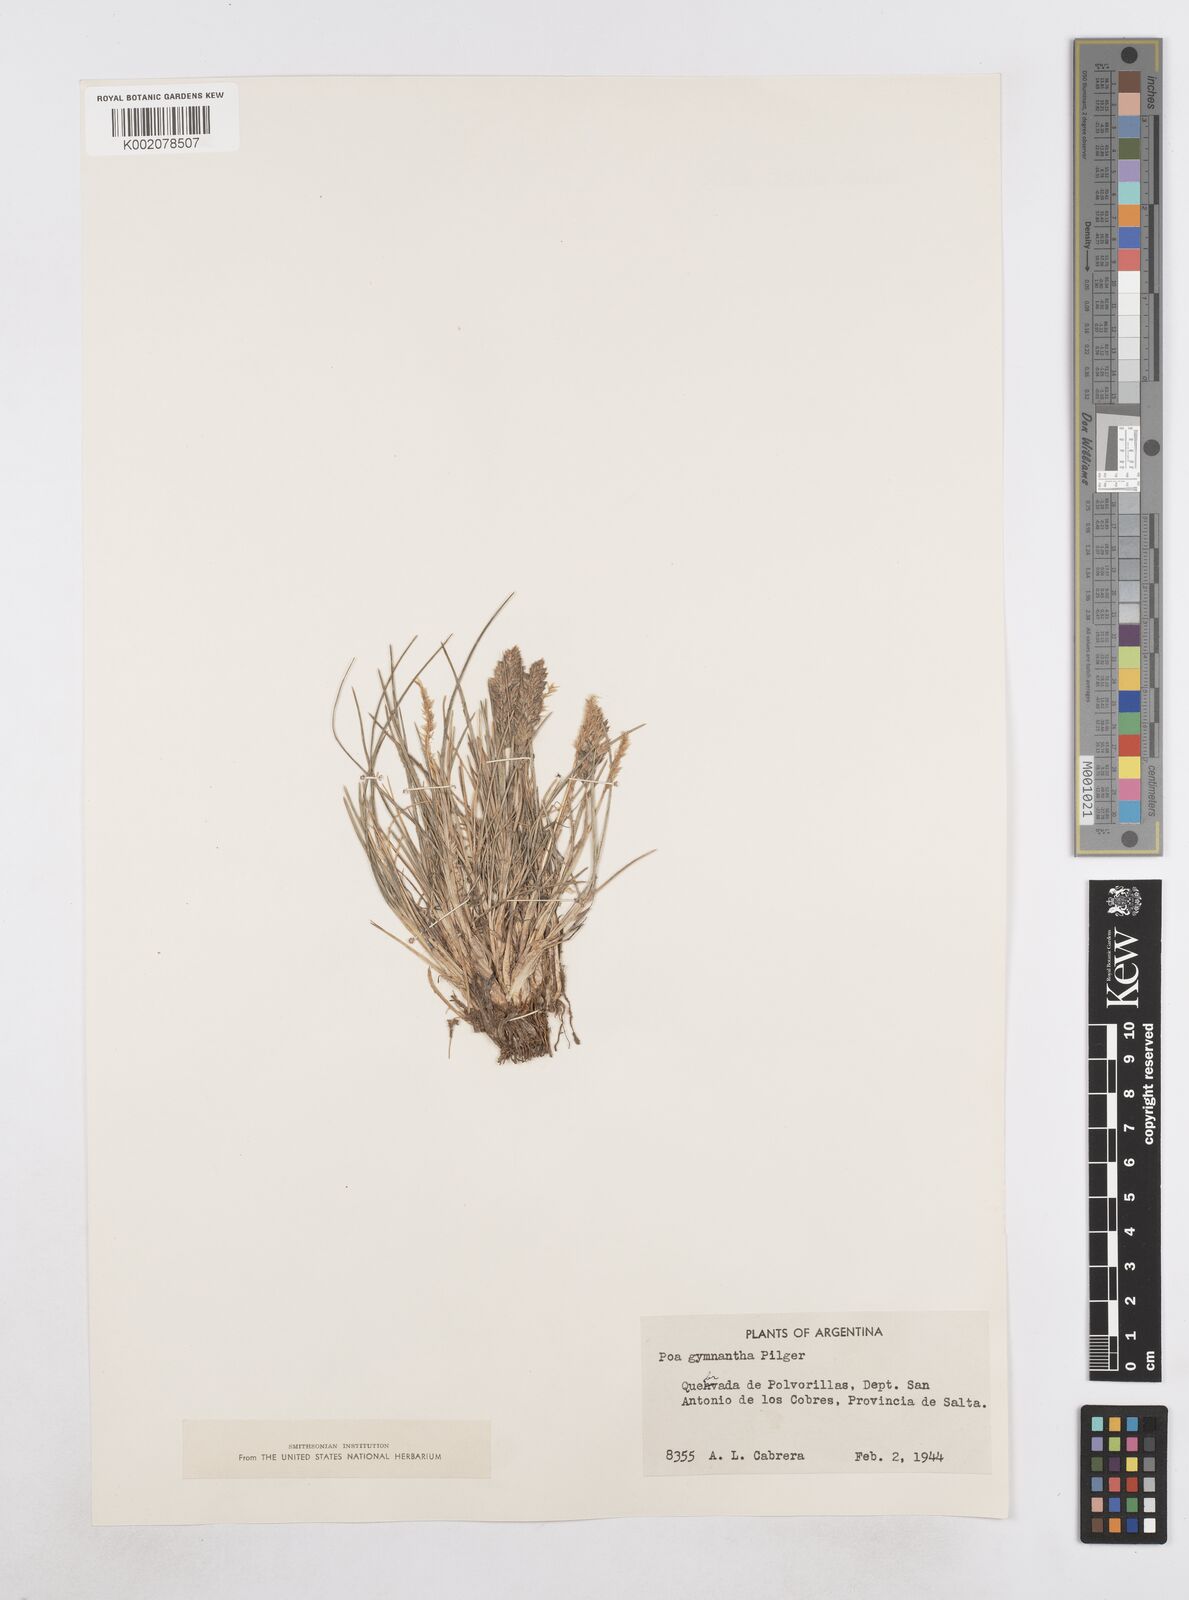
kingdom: Plantae
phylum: Tracheophyta
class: Liliopsida
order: Poales
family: Poaceae
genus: Poa
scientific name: Poa gymnantha
